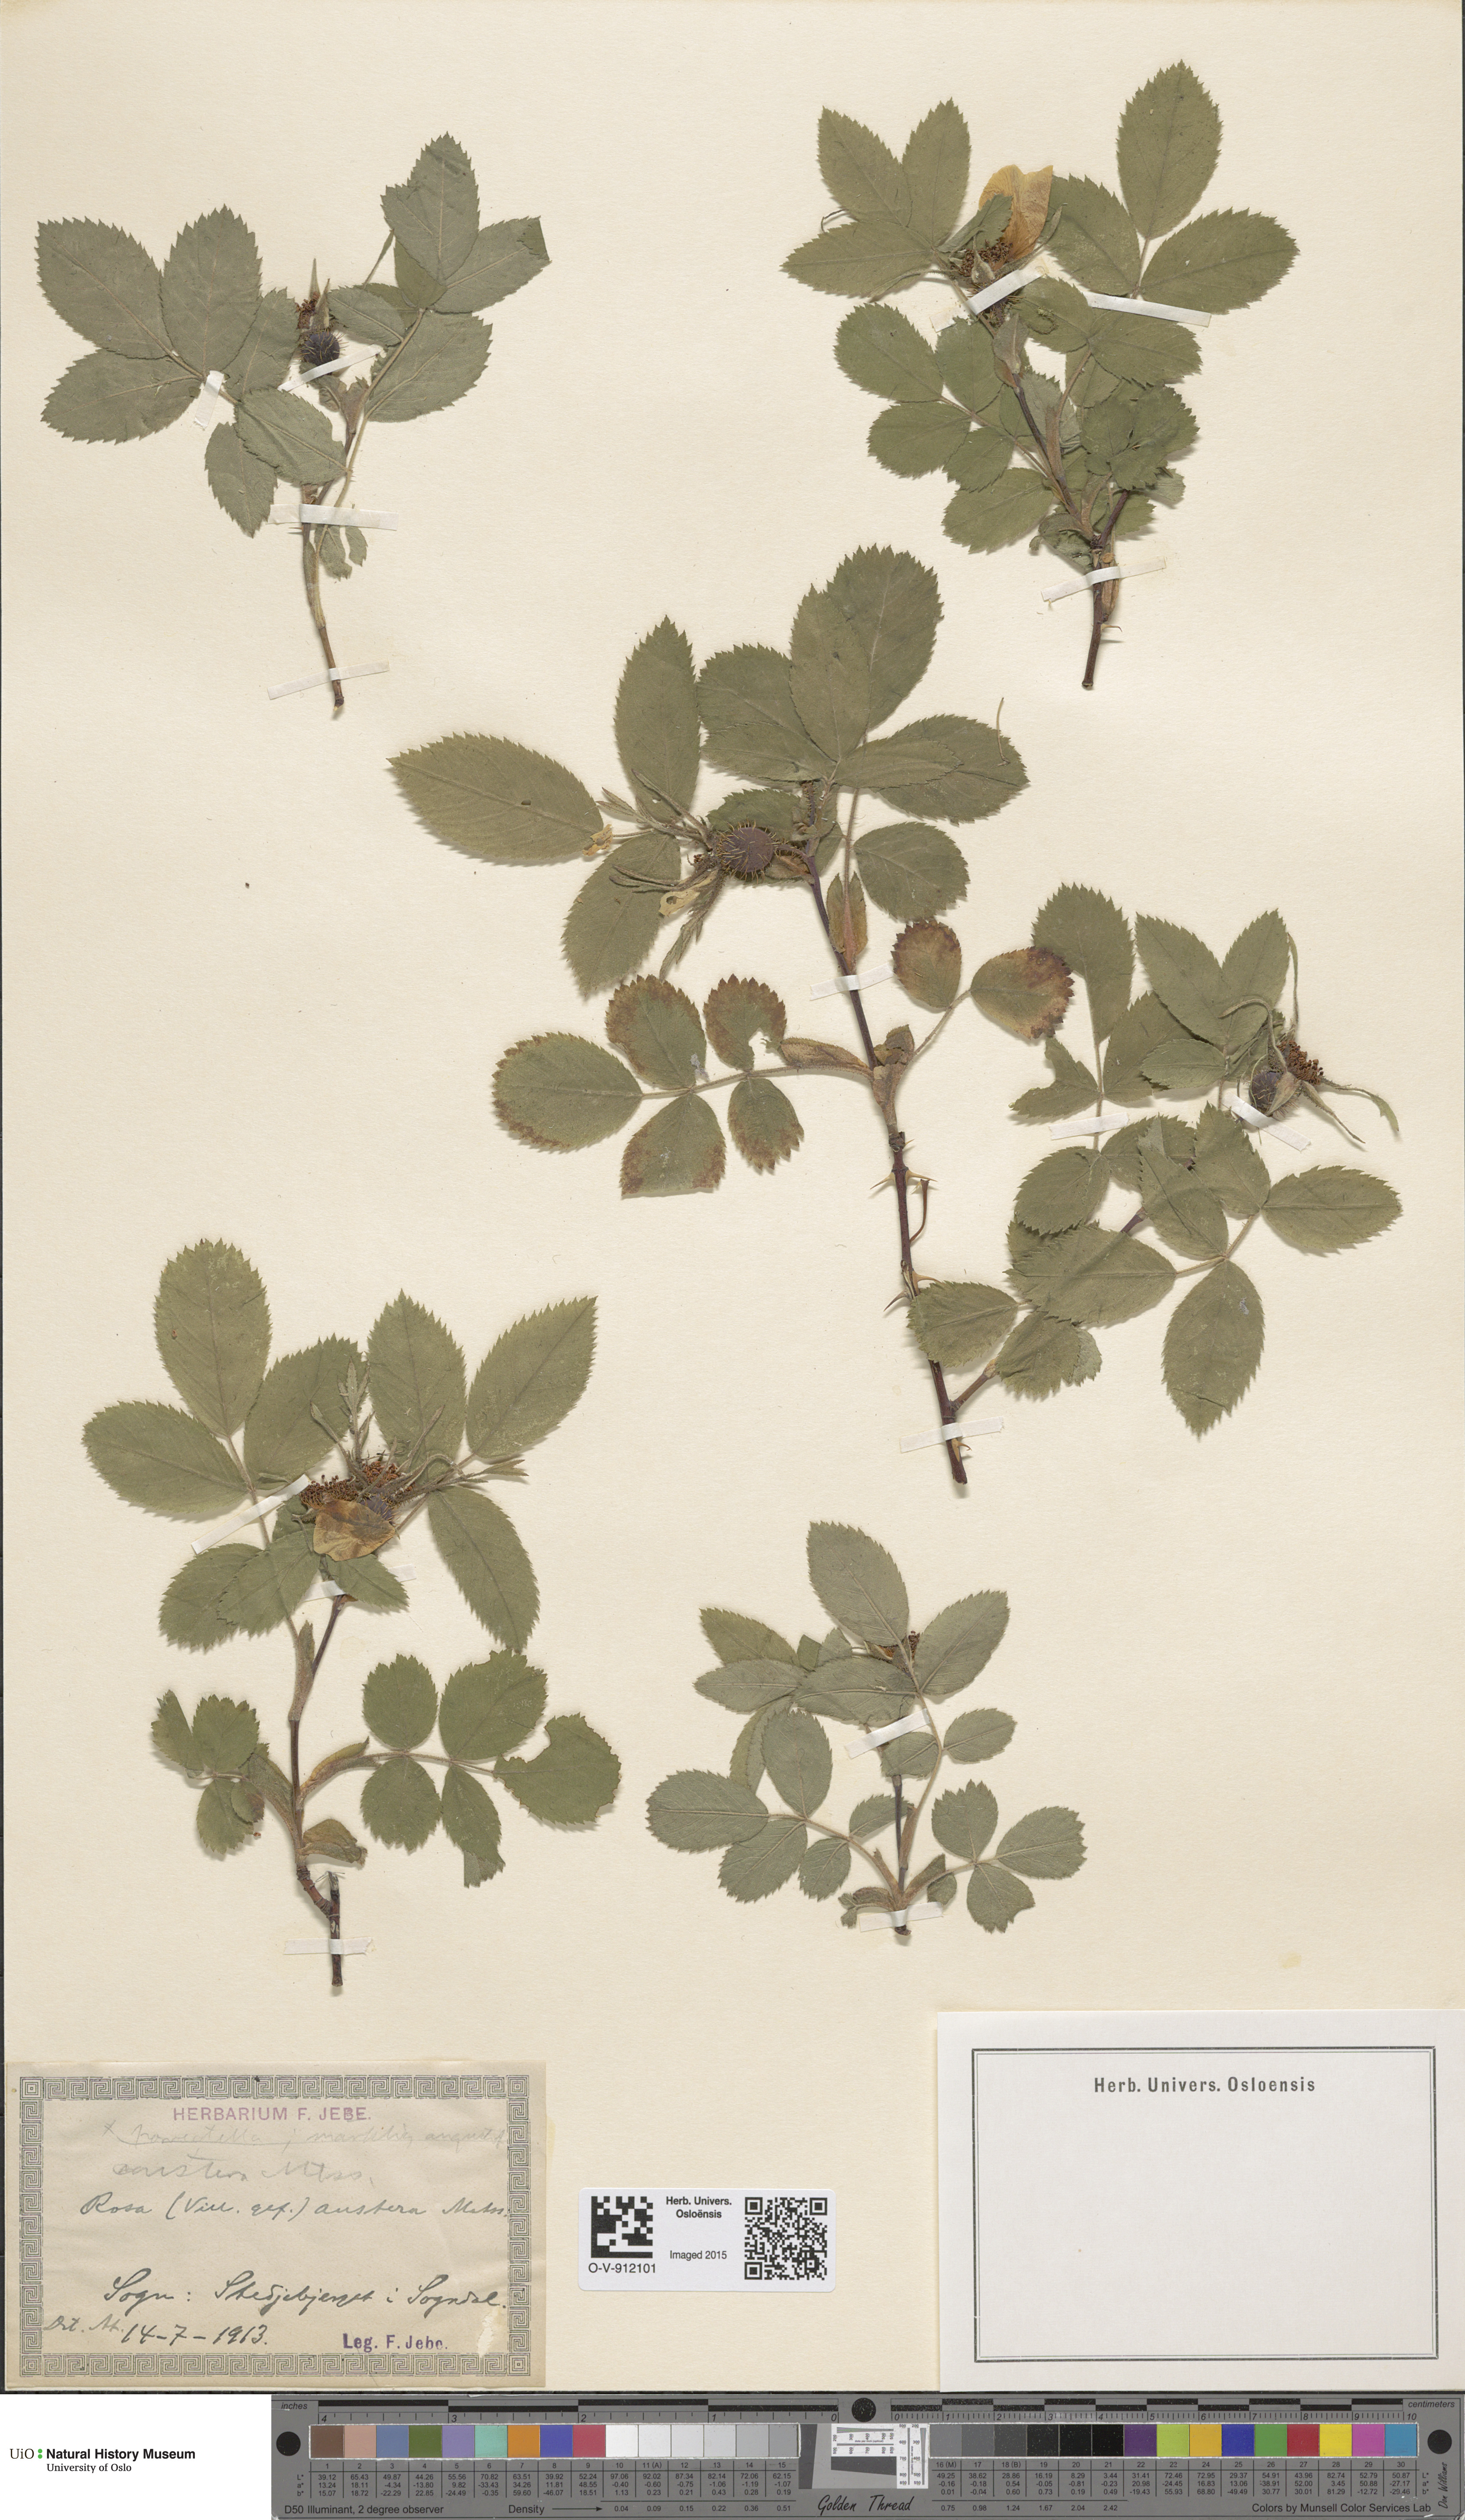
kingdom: Plantae
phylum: Tracheophyta
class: Magnoliopsida
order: Rosales
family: Rosaceae
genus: Rosa
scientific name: Rosa mollis
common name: Rose
